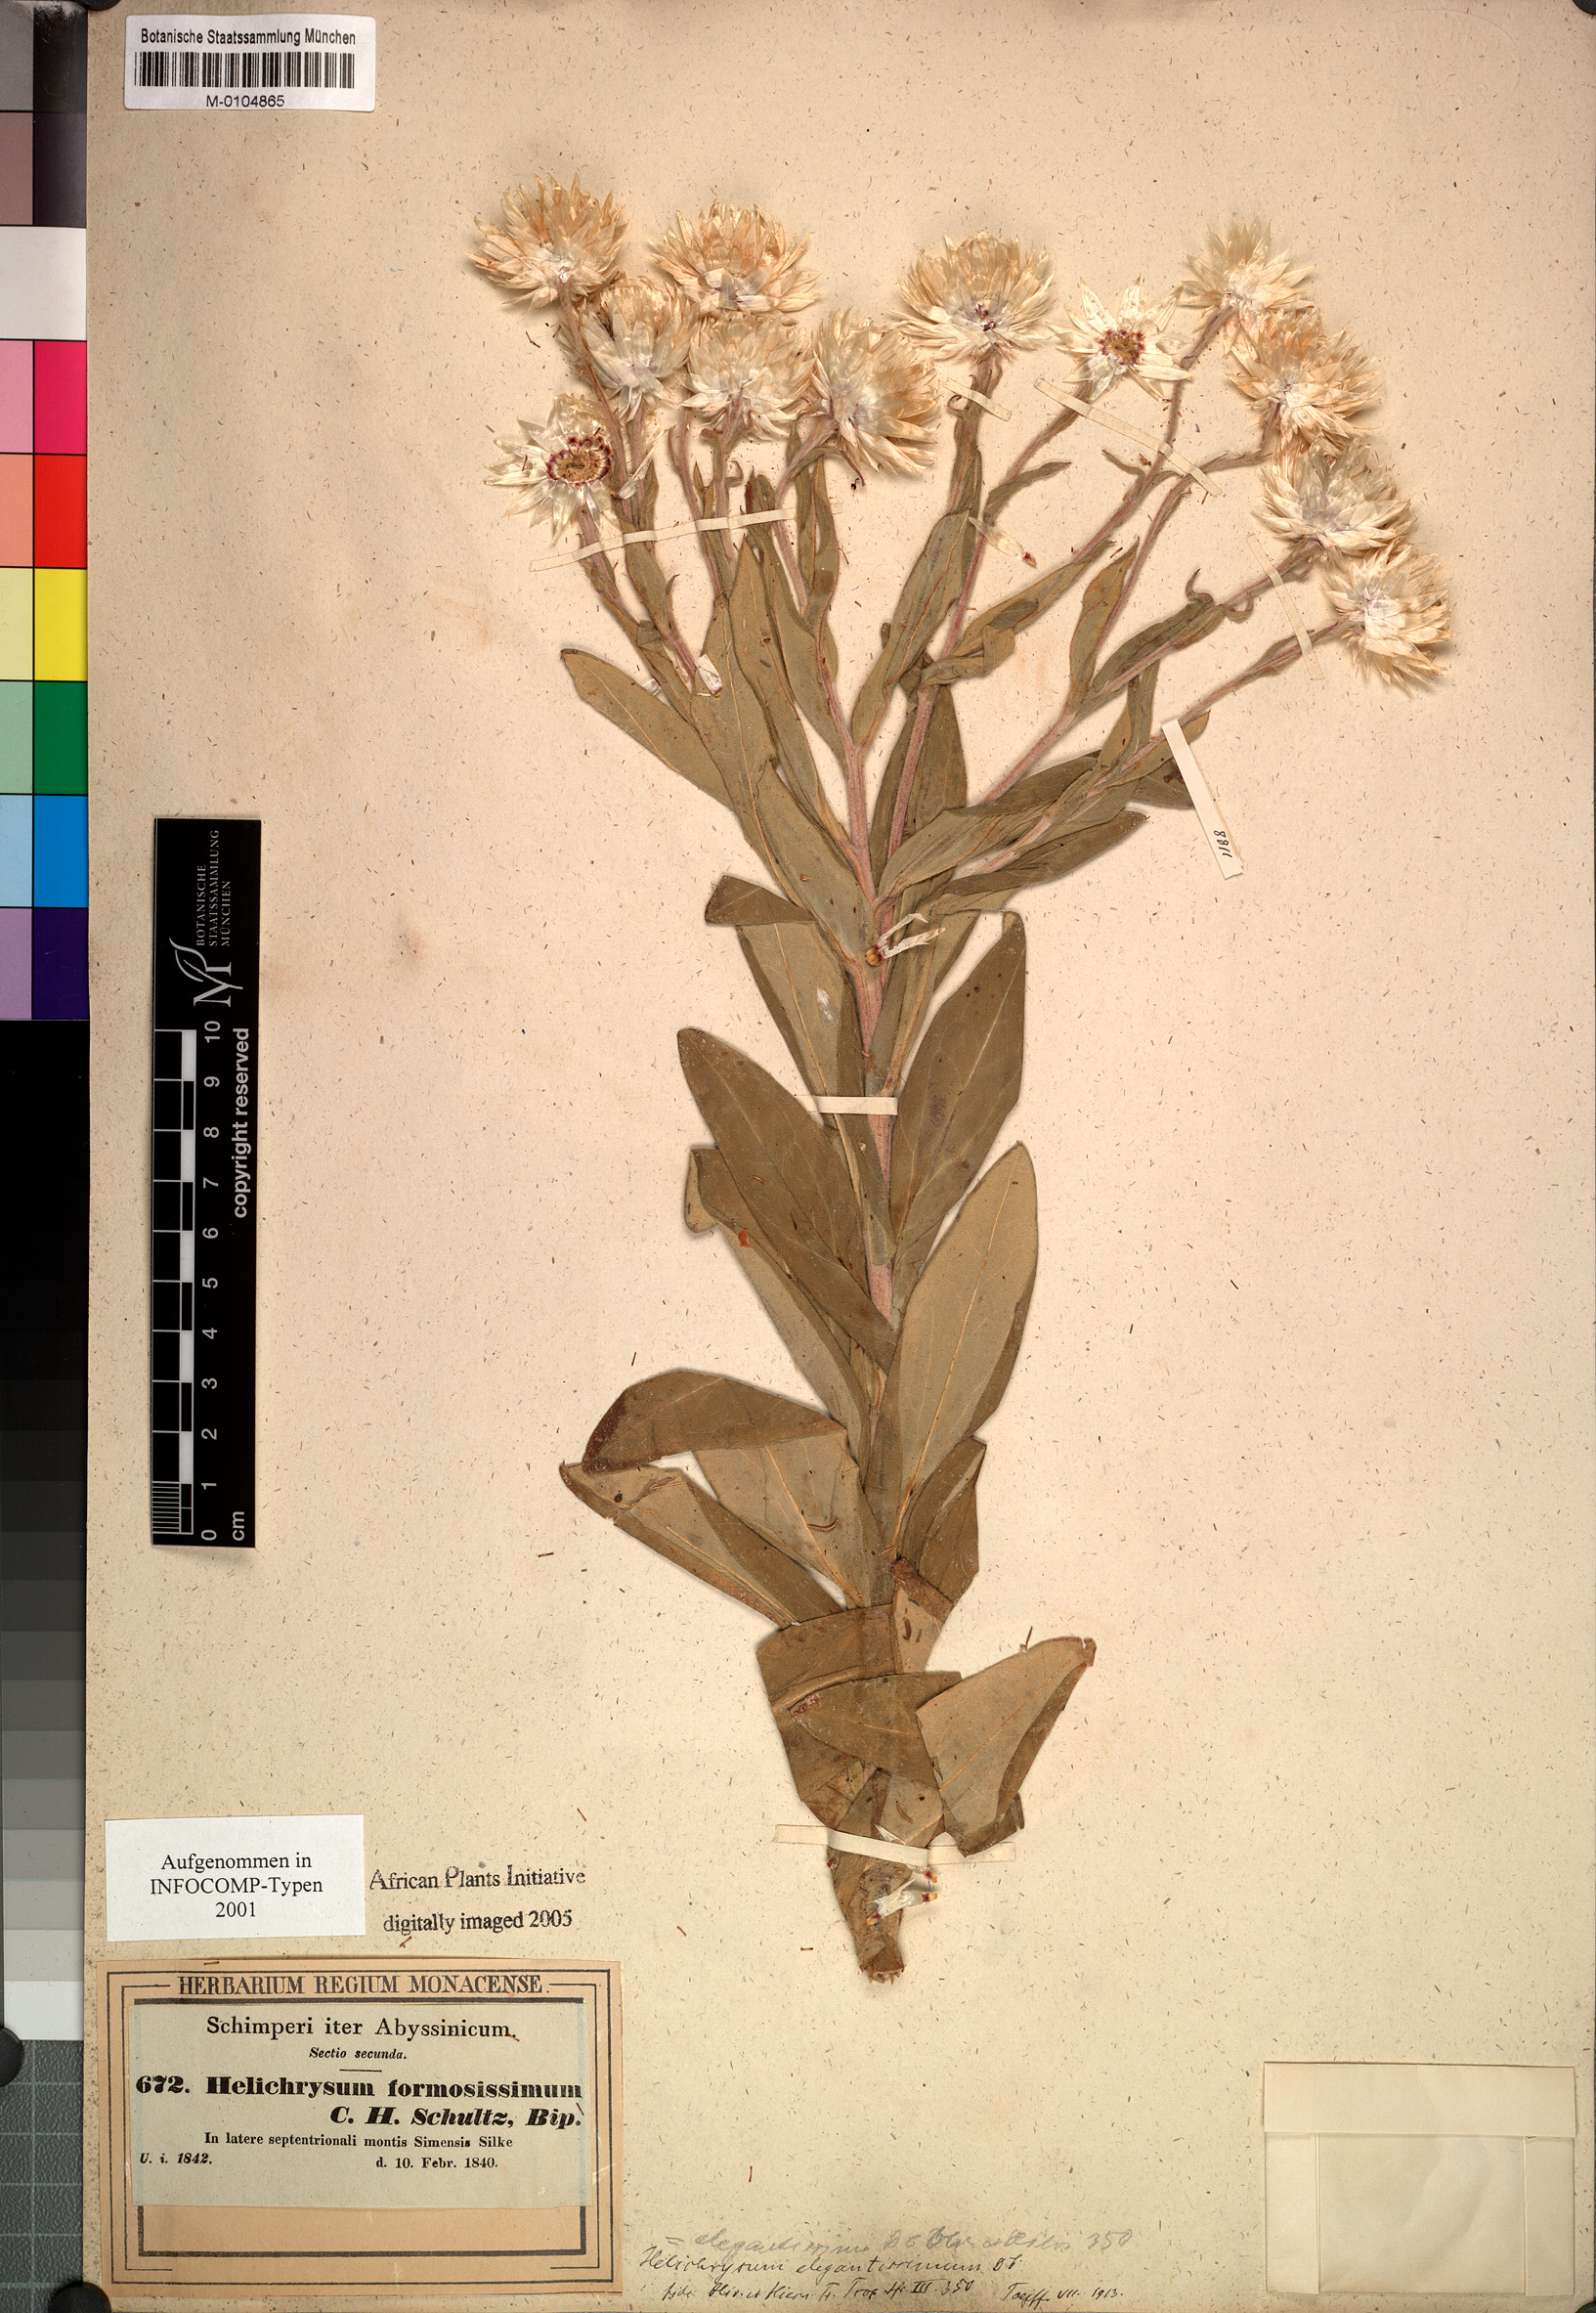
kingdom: Plantae
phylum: Tracheophyta
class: Magnoliopsida
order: Asterales
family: Asteraceae
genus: Helichrysum
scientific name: Helichrysum formosissimum
